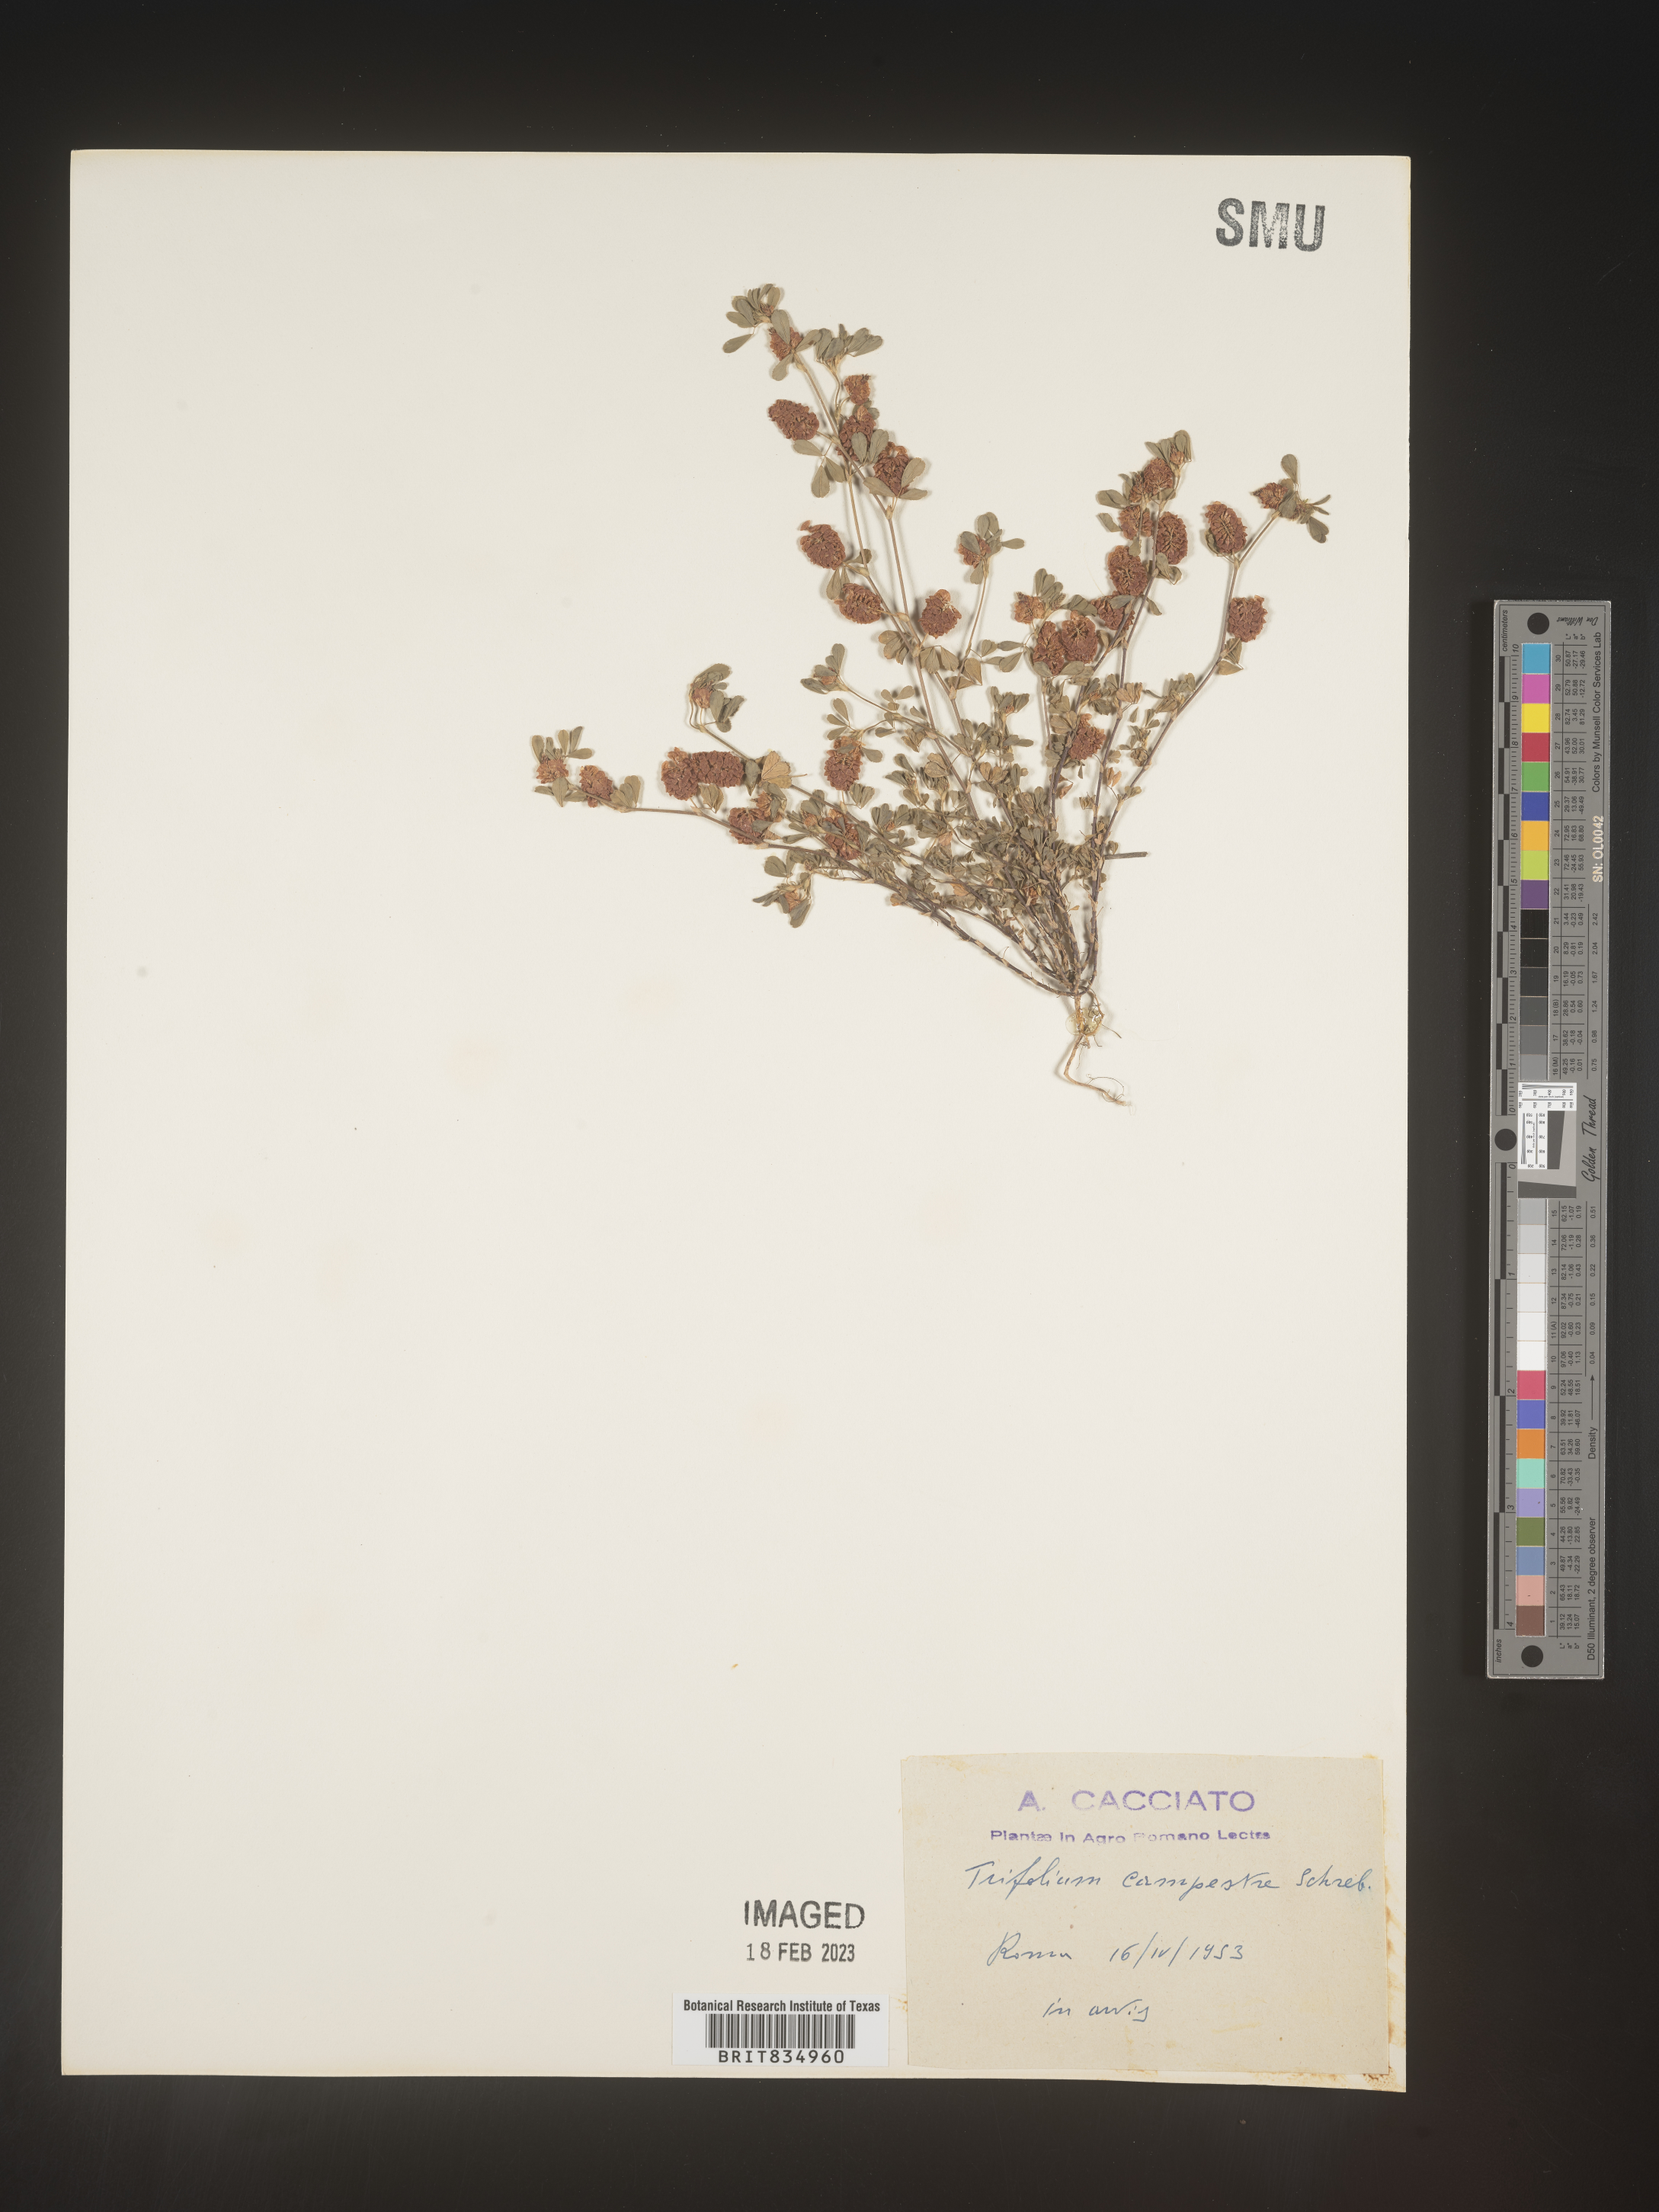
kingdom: Plantae
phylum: Tracheophyta
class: Magnoliopsida
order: Fabales
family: Fabaceae
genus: Trifolium
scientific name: Trifolium
